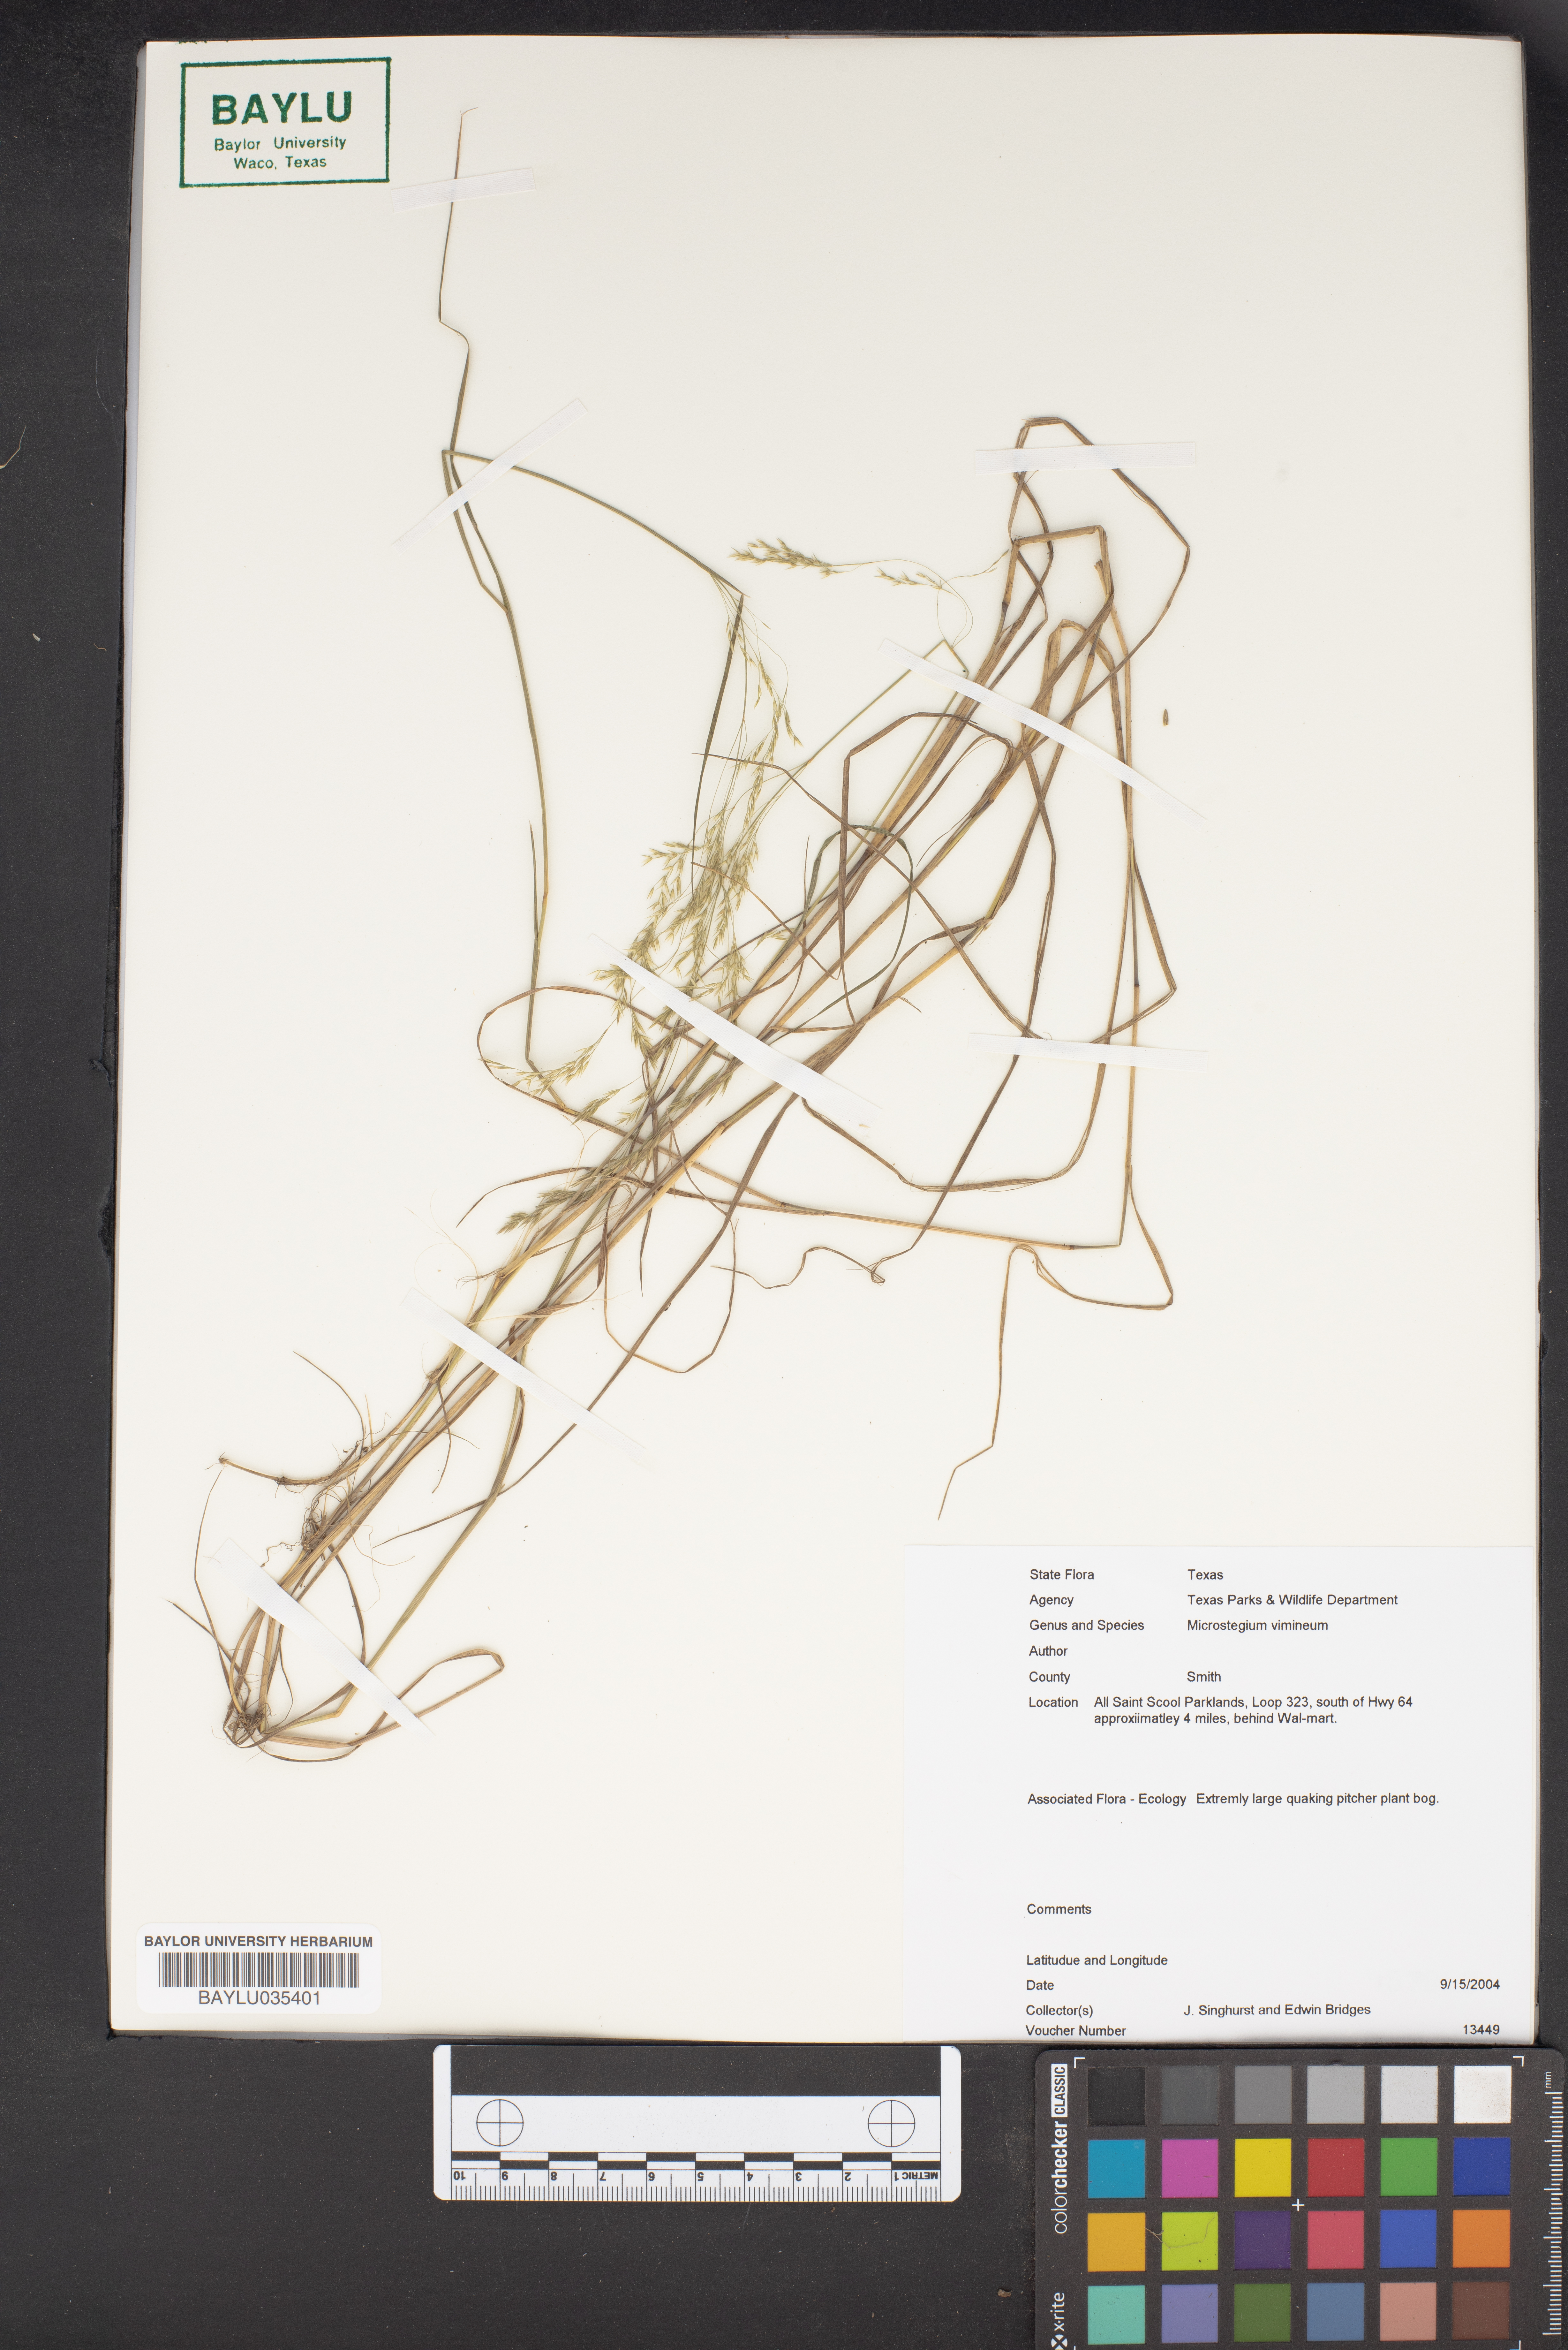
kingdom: Plantae
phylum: Tracheophyta
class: Liliopsida
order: Poales
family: Poaceae
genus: Microstegium
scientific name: Microstegium vimineum
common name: Japanese stiltgrass
